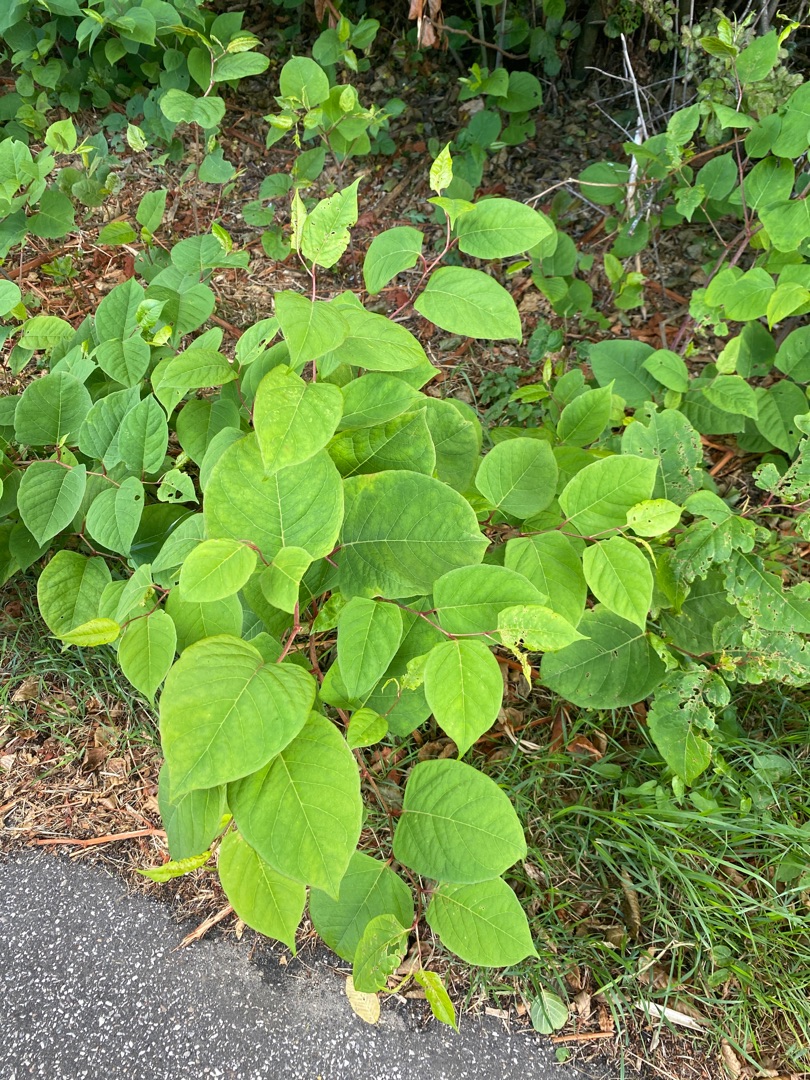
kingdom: Plantae
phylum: Tracheophyta
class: Magnoliopsida
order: Caryophyllales
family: Polygonaceae
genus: Reynoutria
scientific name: Reynoutria japonica
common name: Japan-pileurt
